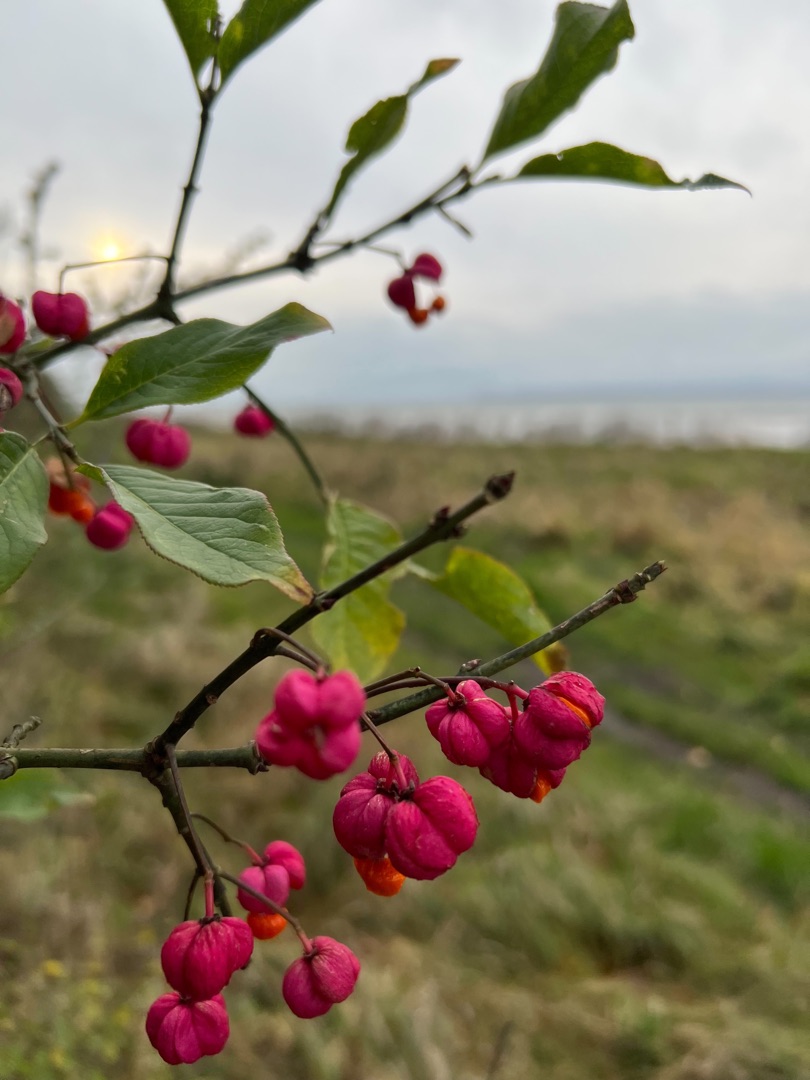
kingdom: Plantae
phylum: Tracheophyta
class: Magnoliopsida
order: Celastrales
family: Celastraceae
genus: Euonymus
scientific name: Euonymus europaeus
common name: Benved
